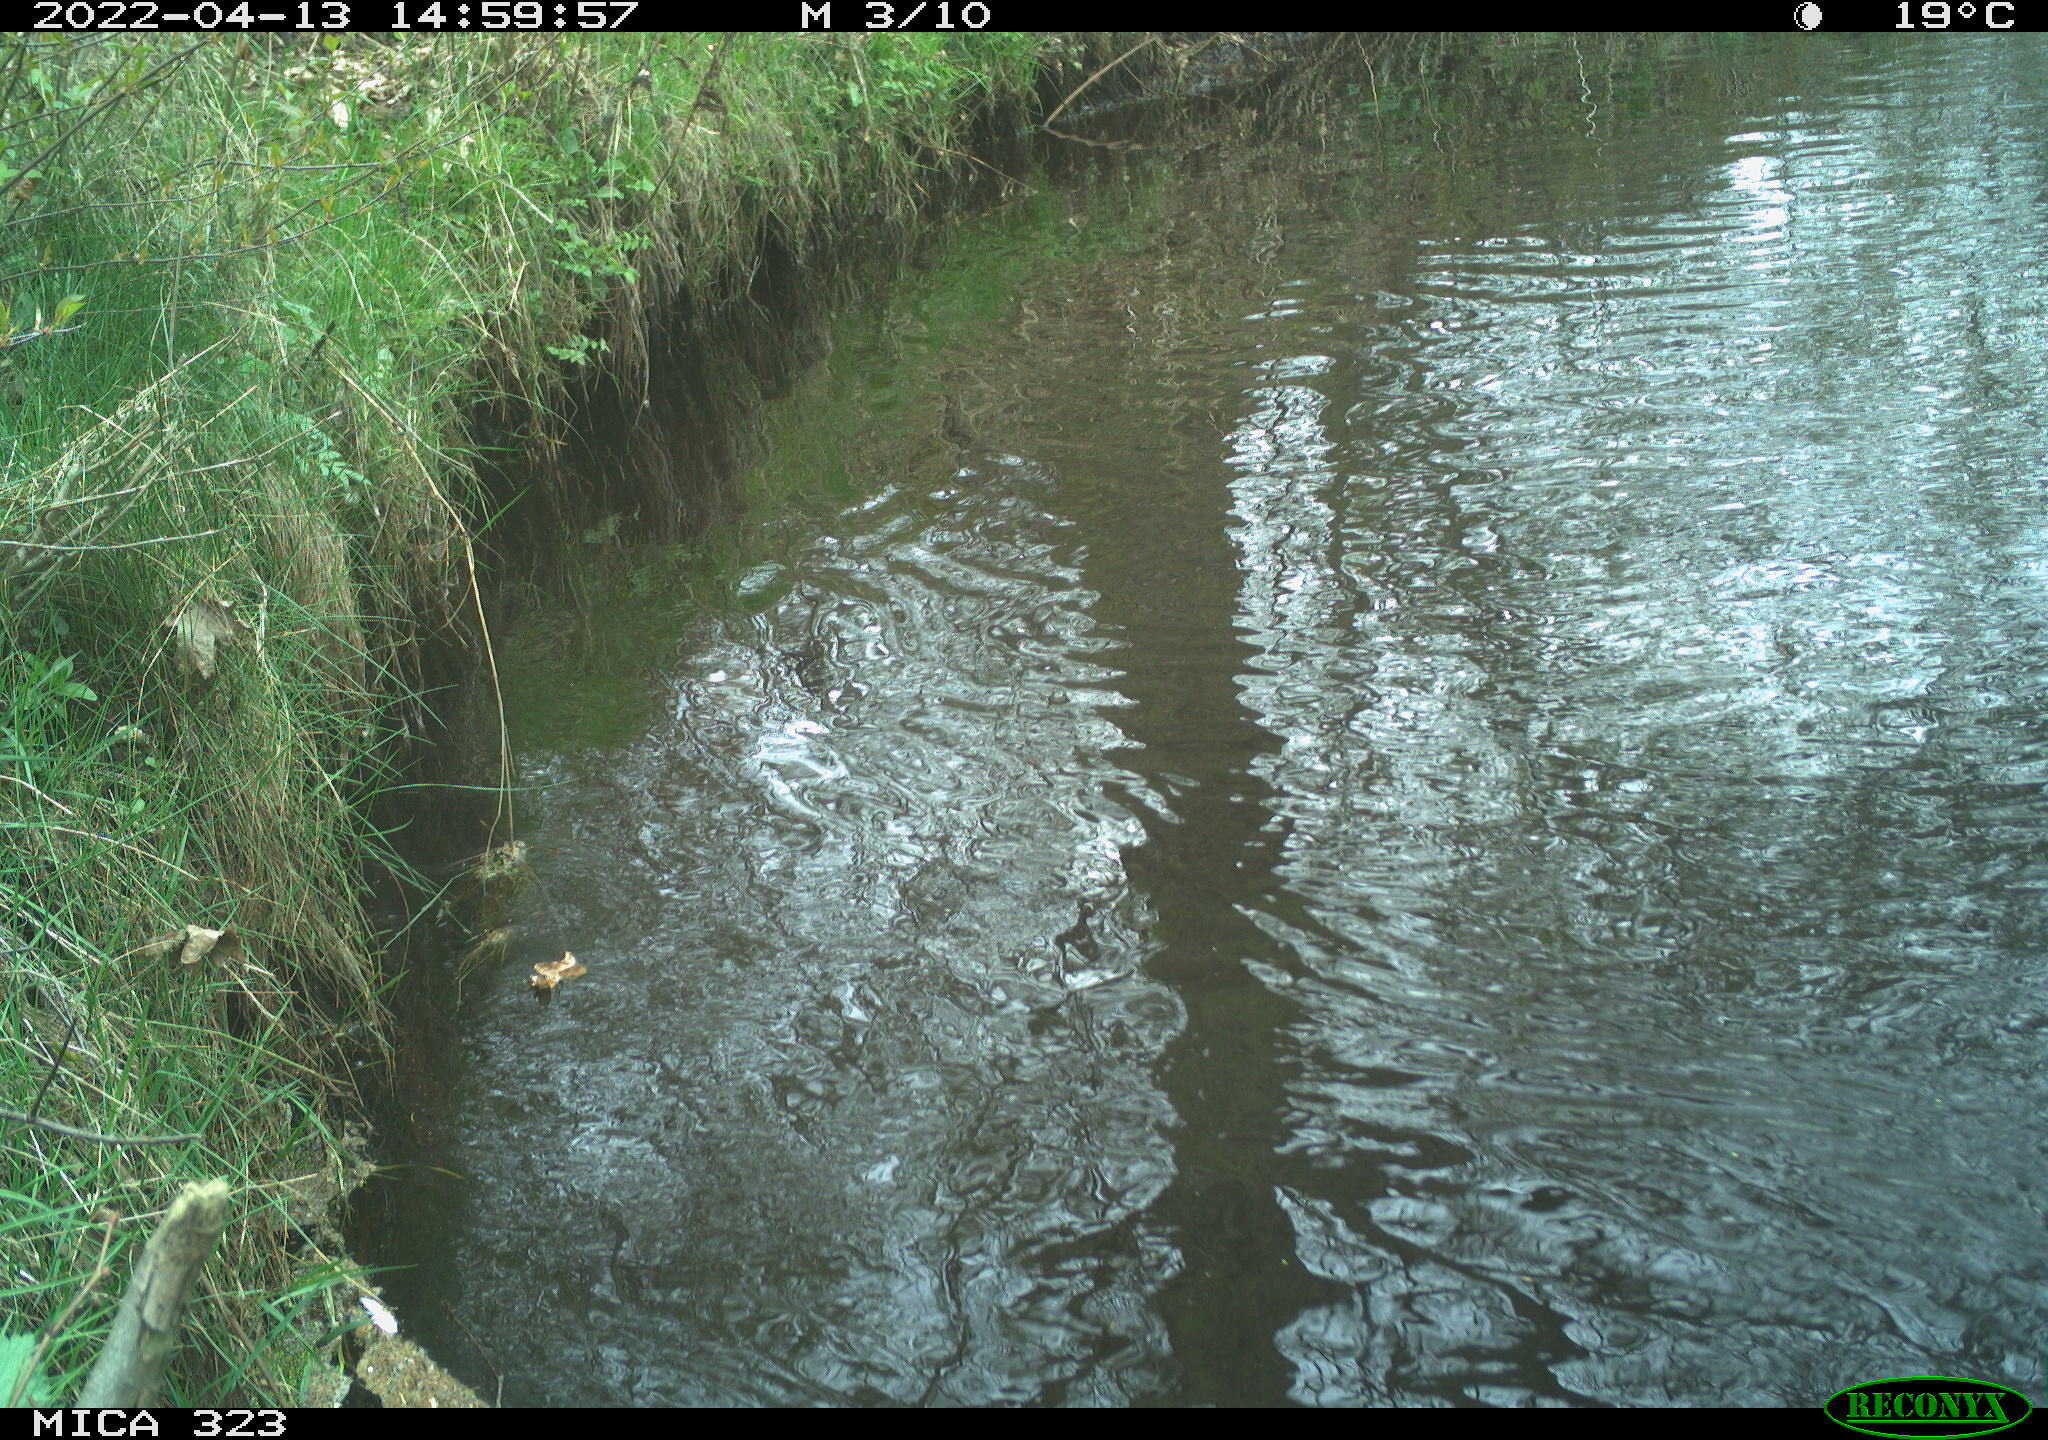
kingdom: Animalia
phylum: Chordata
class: Aves
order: Anseriformes
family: Anatidae
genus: Anas
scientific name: Anas
